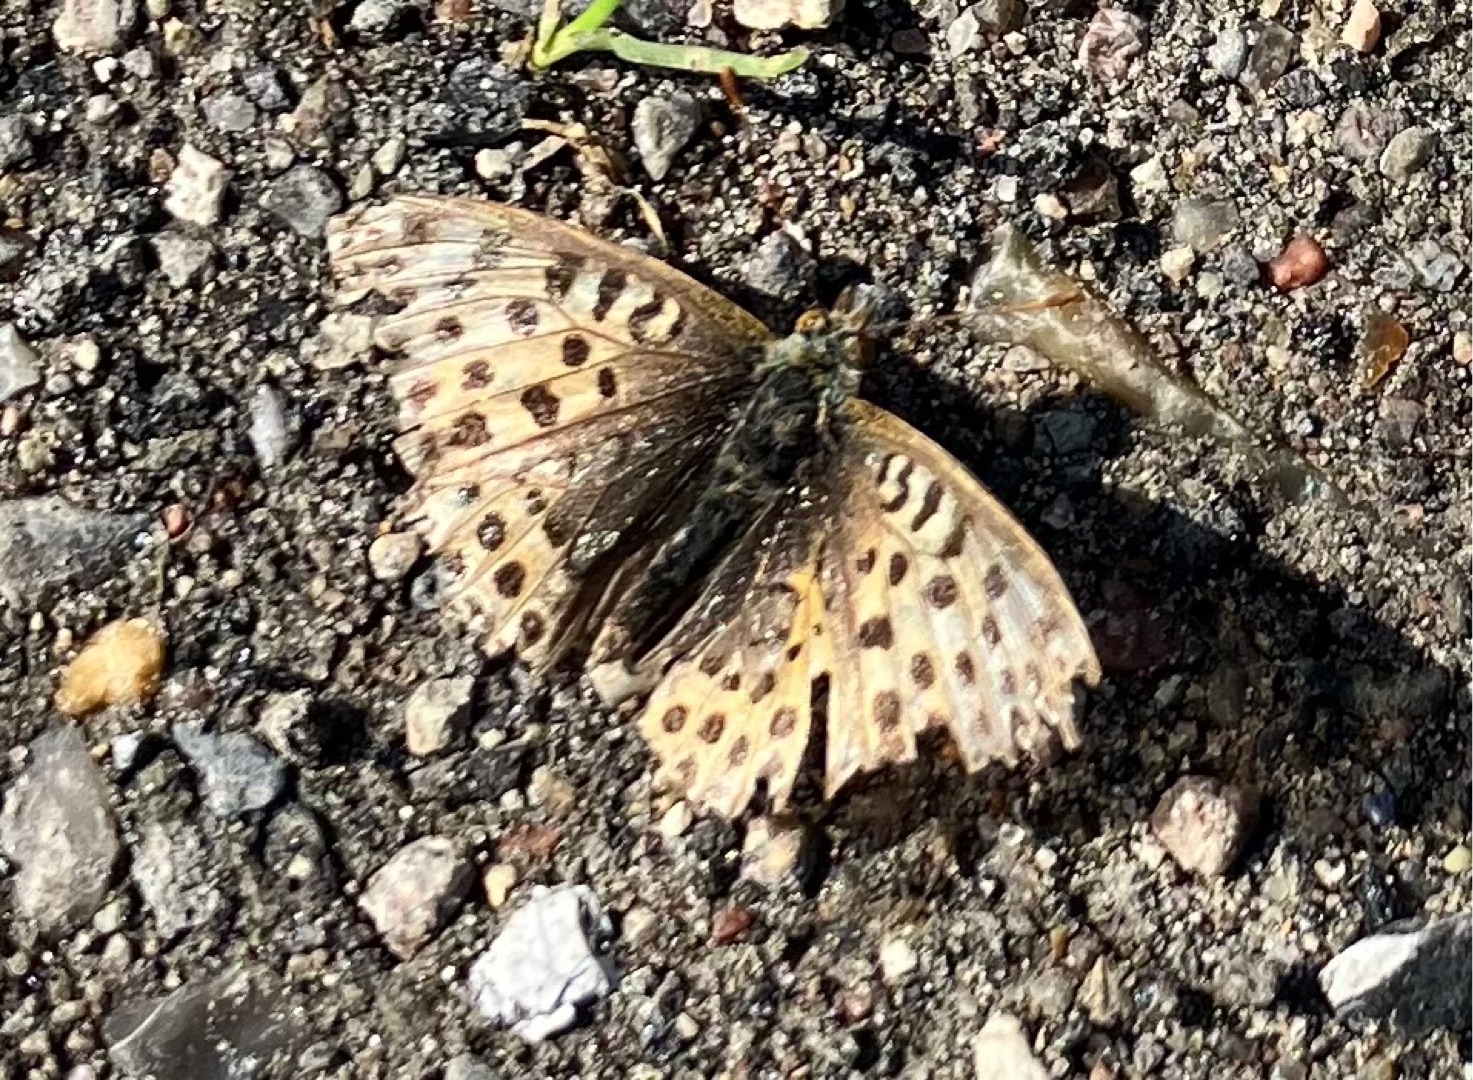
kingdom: Animalia
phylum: Arthropoda
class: Insecta
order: Lepidoptera
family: Nymphalidae
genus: Issoria
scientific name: Issoria lathonia
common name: Storplettet perlemorsommerfugl
